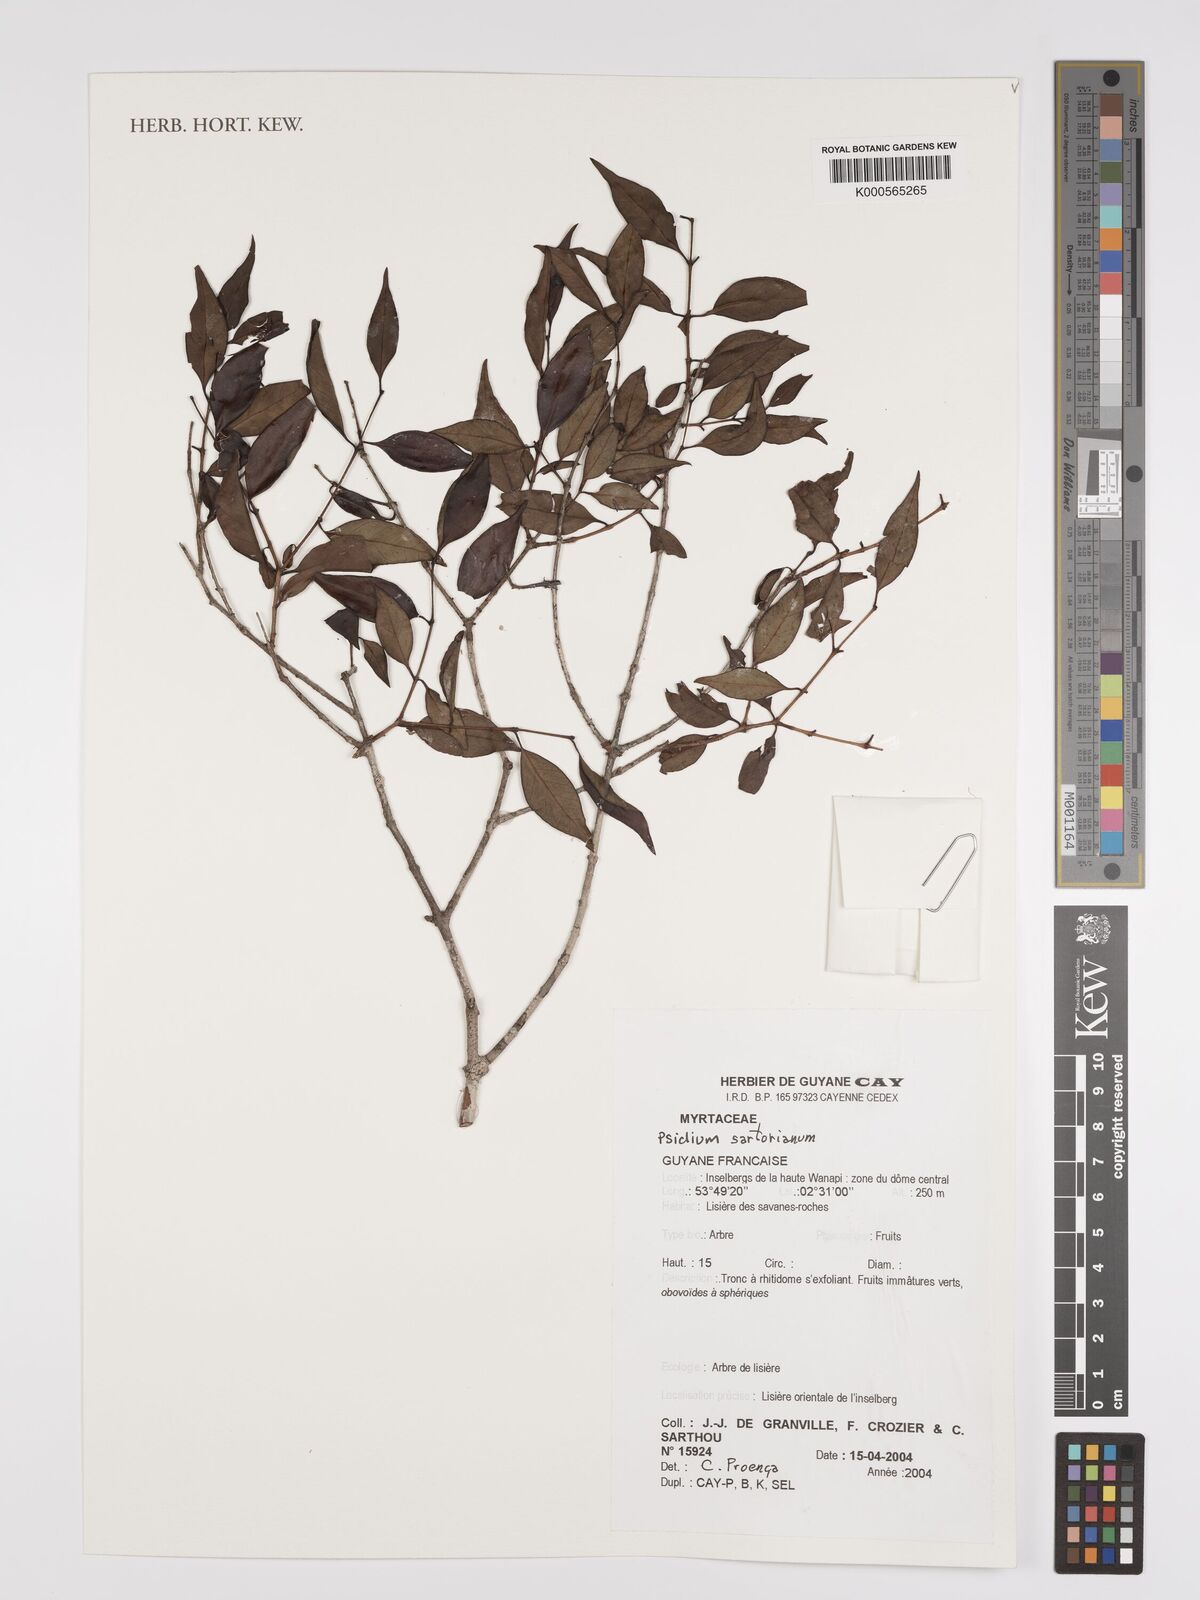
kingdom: Plantae
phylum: Tracheophyta
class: Magnoliopsida
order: Myrtales
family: Myrtaceae
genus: Psidium
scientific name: Psidium sartorianum
